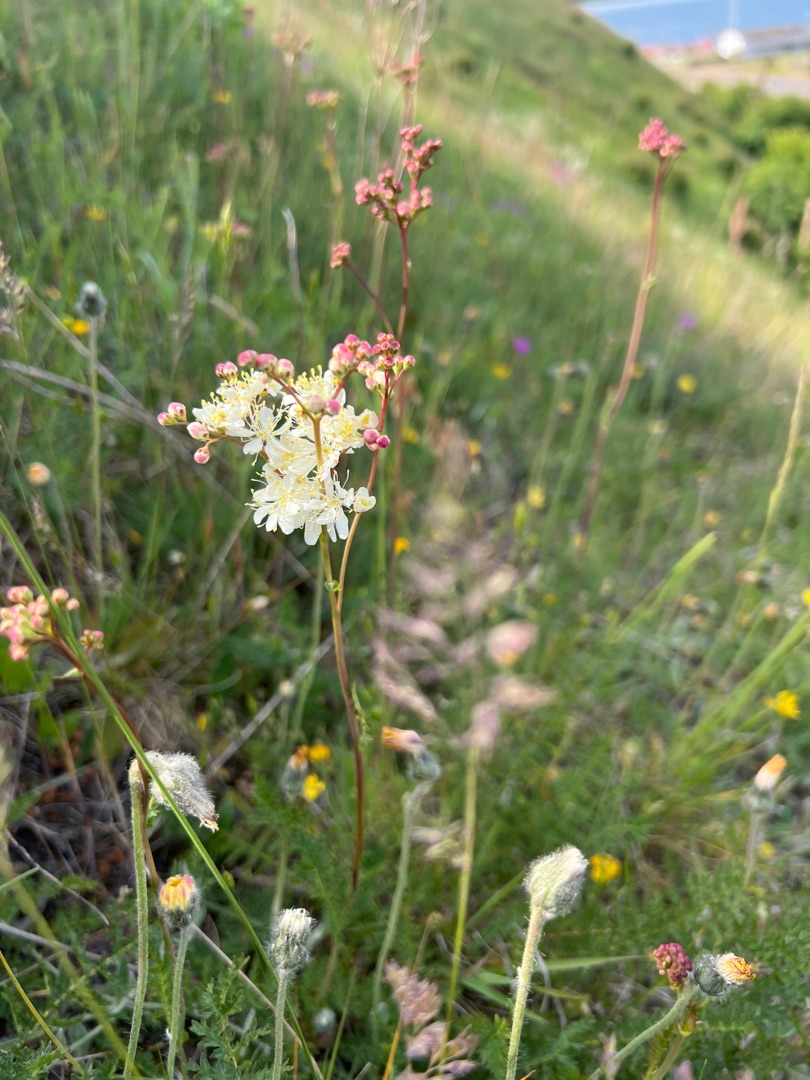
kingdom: Plantae
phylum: Tracheophyta
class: Magnoliopsida
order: Rosales
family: Rosaceae
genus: Filipendula
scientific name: Filipendula vulgaris
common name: Knoldet mjødurt
